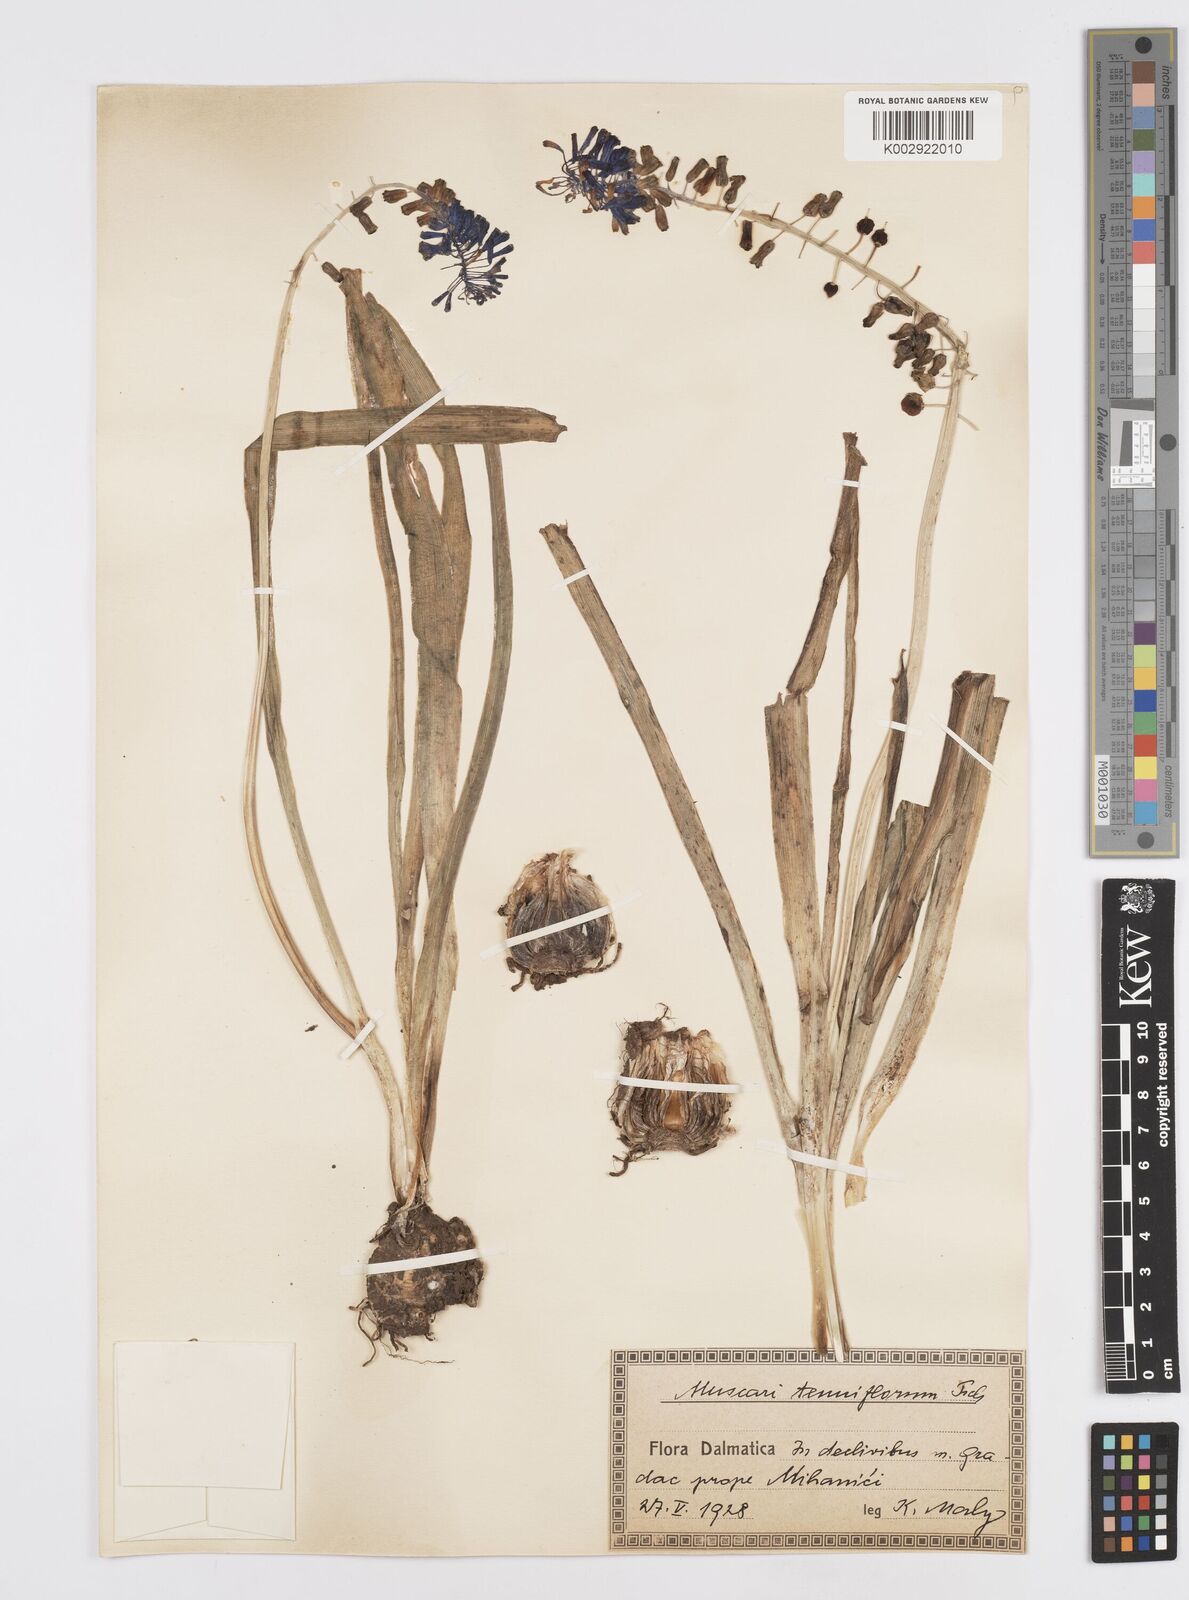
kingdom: Plantae
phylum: Tracheophyta
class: Liliopsida
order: Asparagales
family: Asparagaceae
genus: Muscari
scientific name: Muscari tenuiflorum
